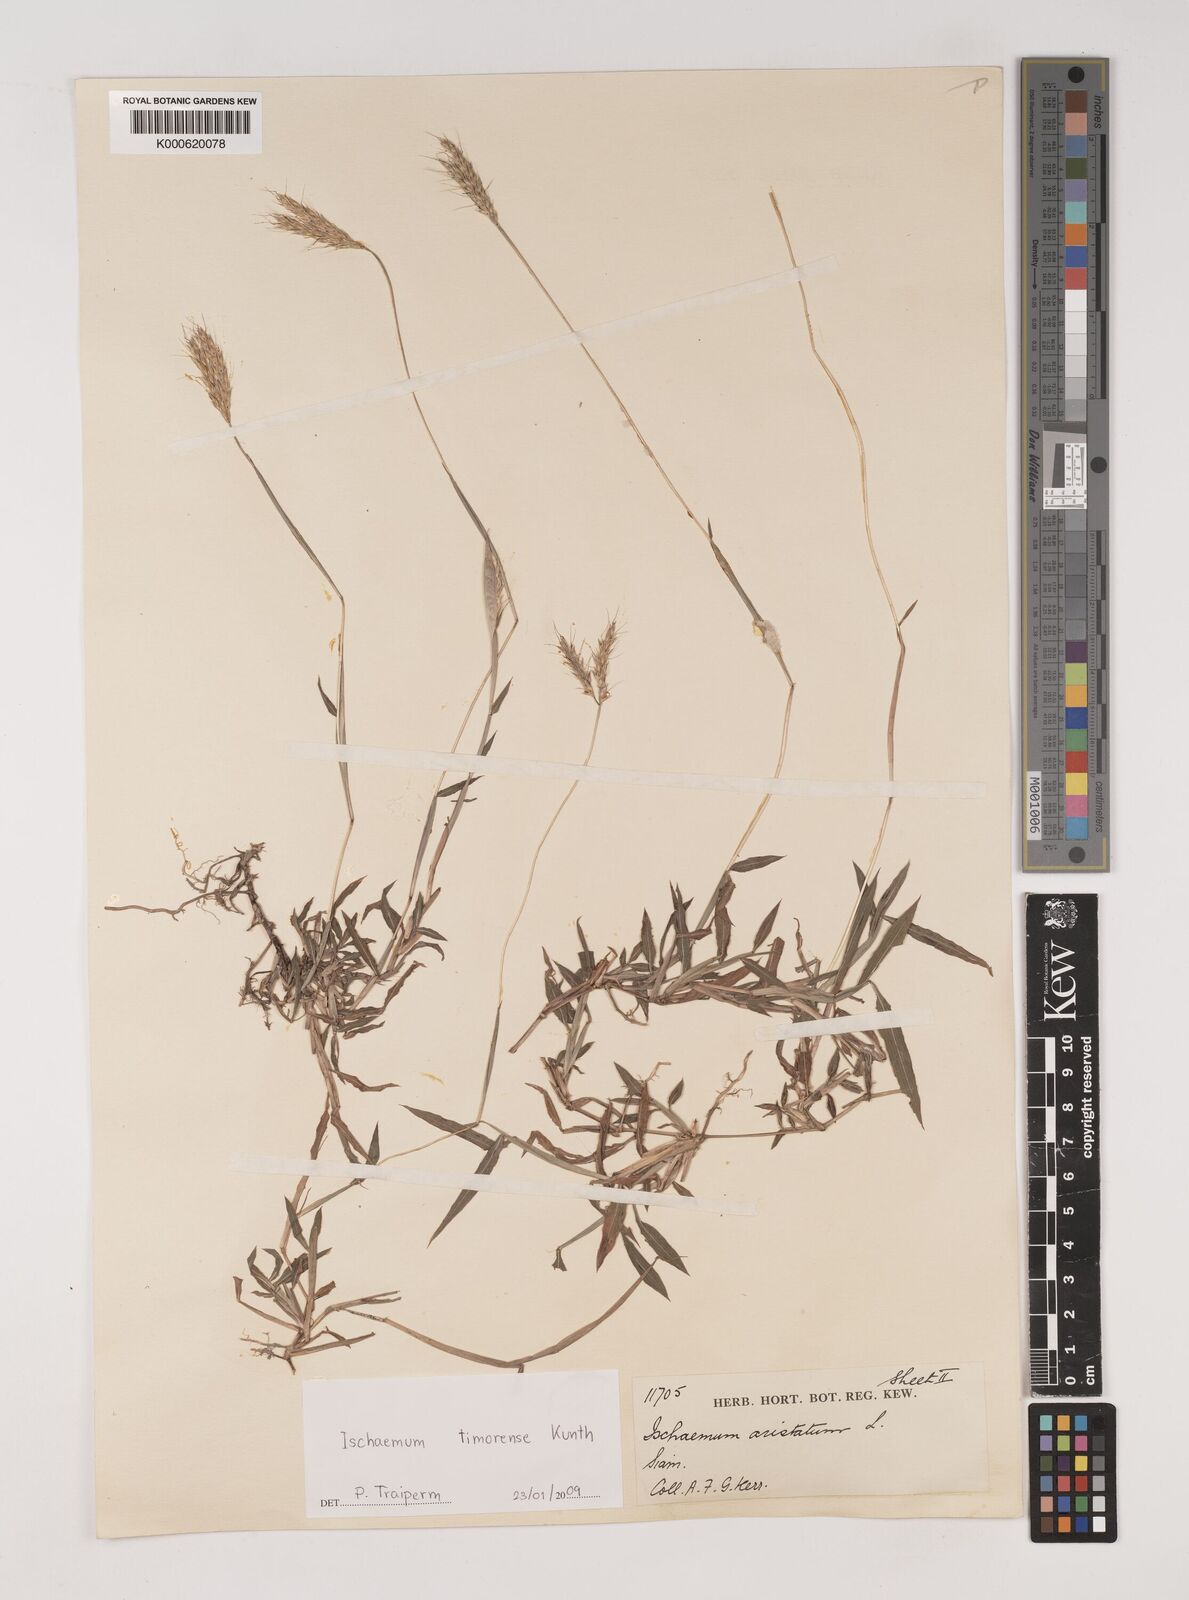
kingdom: Plantae
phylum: Tracheophyta
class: Liliopsida
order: Poales
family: Poaceae
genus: Ischaemum
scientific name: Ischaemum timorense
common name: Stalkleaf murainagrass
